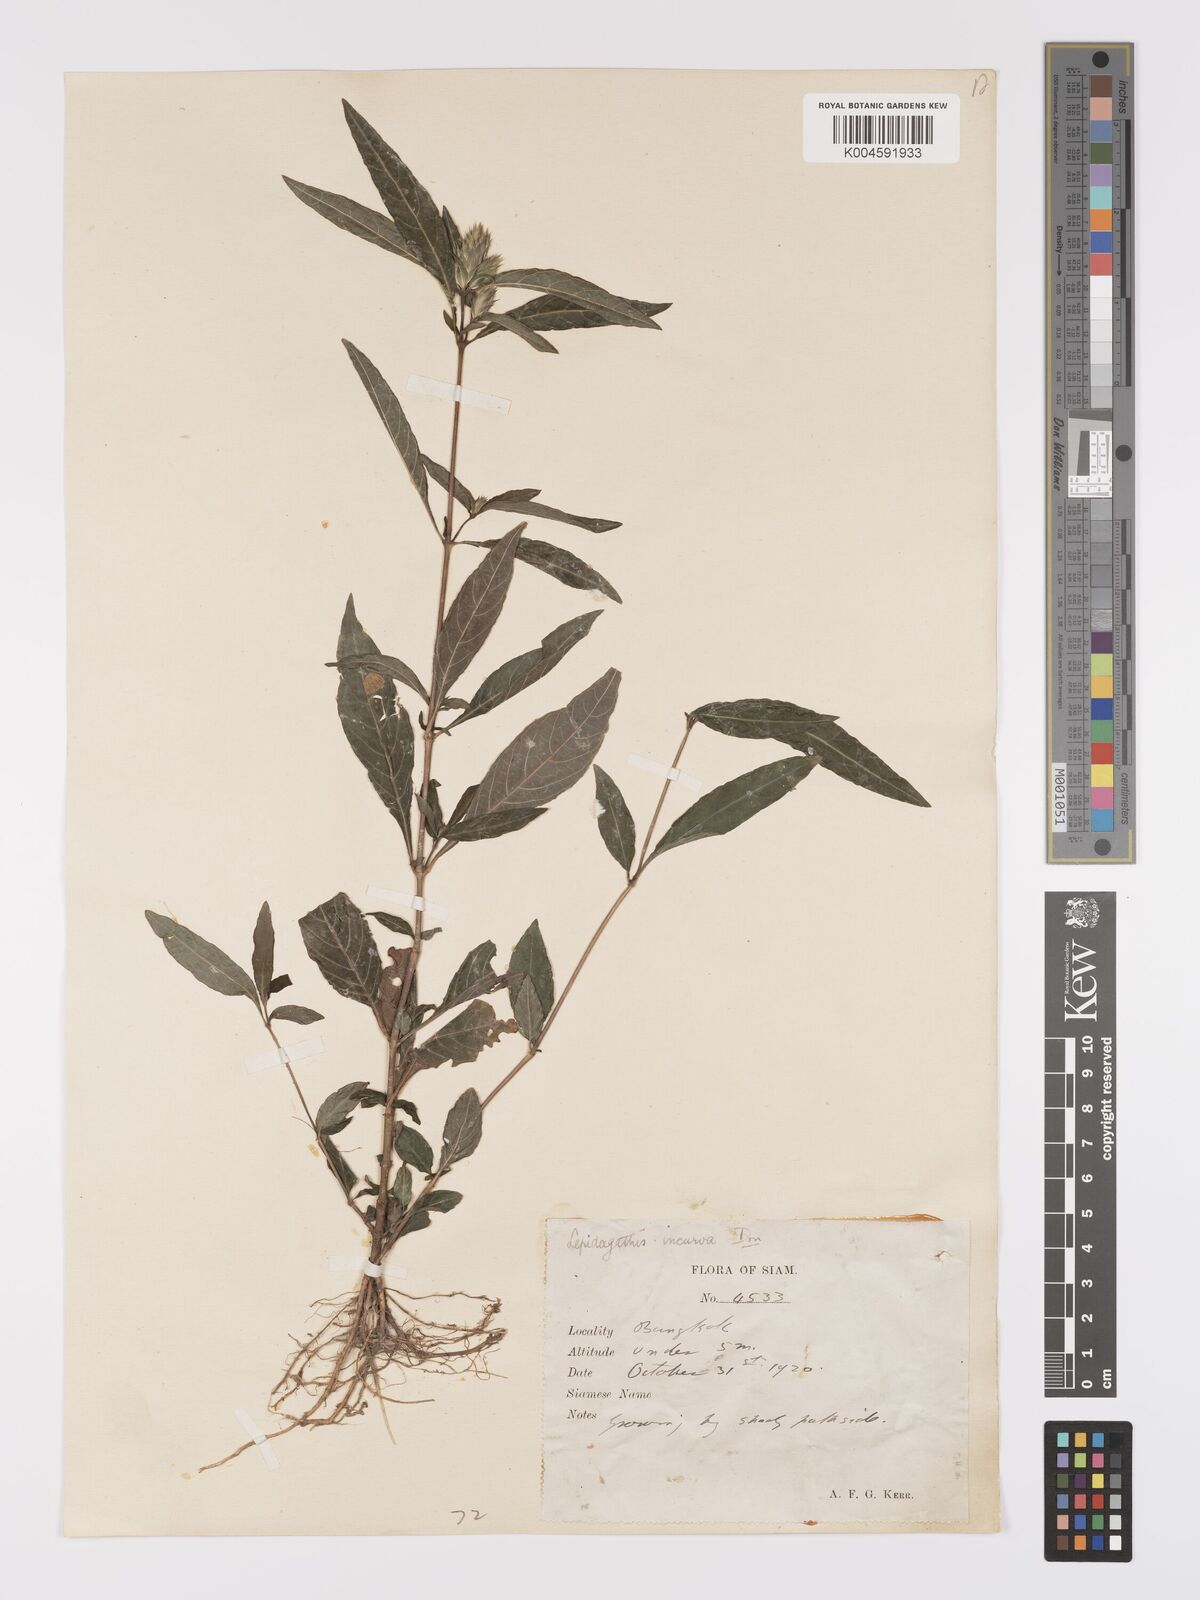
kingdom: Plantae
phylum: Tracheophyta
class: Magnoliopsida
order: Lamiales
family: Acanthaceae
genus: Lepidagathis
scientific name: Lepidagathis incurva
